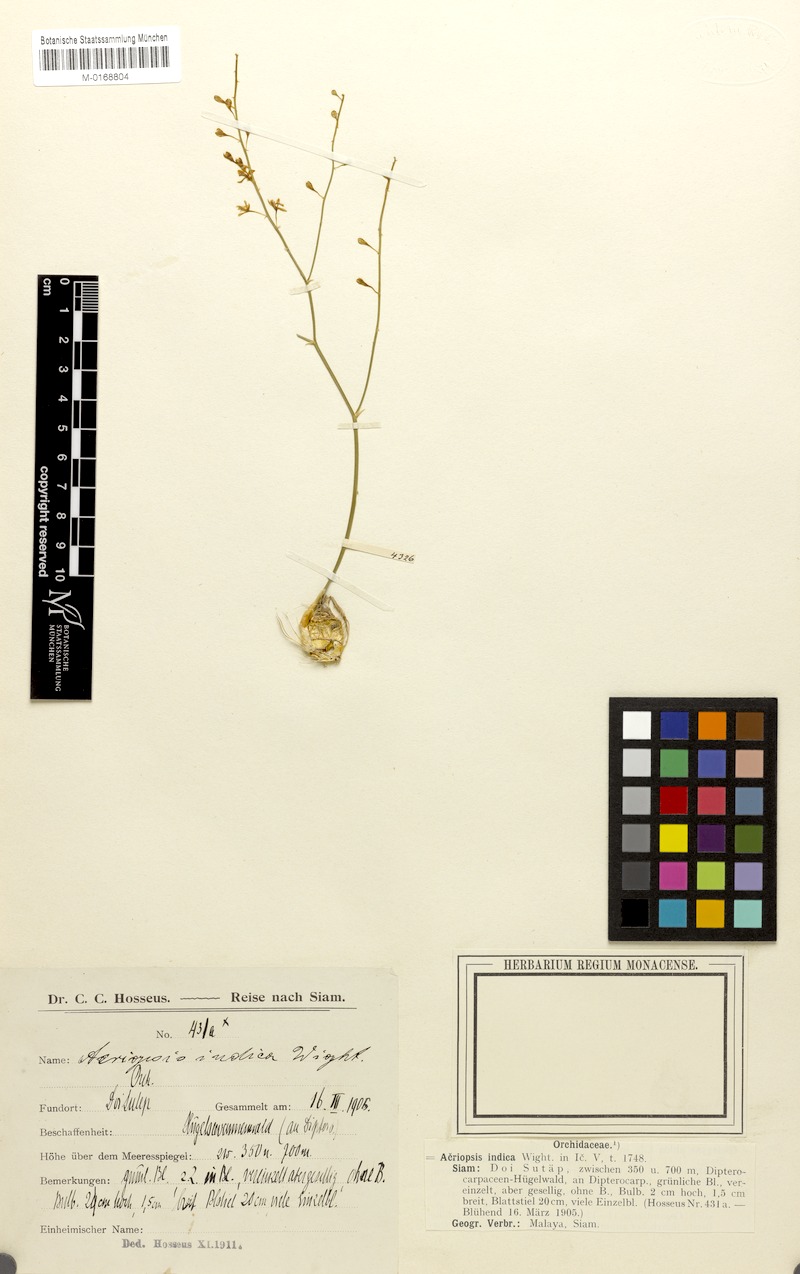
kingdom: Plantae
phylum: Tracheophyta
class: Liliopsida
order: Asparagales
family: Orchidaceae
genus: Acriopsis
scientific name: Acriopsis indica
